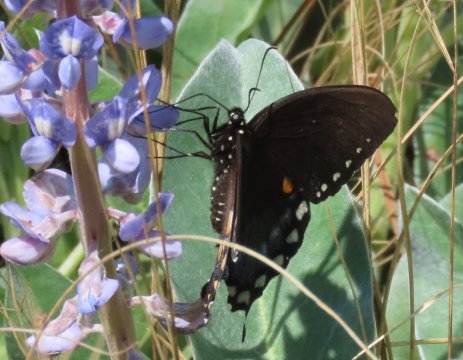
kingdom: Animalia
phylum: Arthropoda
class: Insecta
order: Lepidoptera
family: Papilionidae
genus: Pterourus
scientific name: Pterourus troilus
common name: Spicebush Swallowtail
